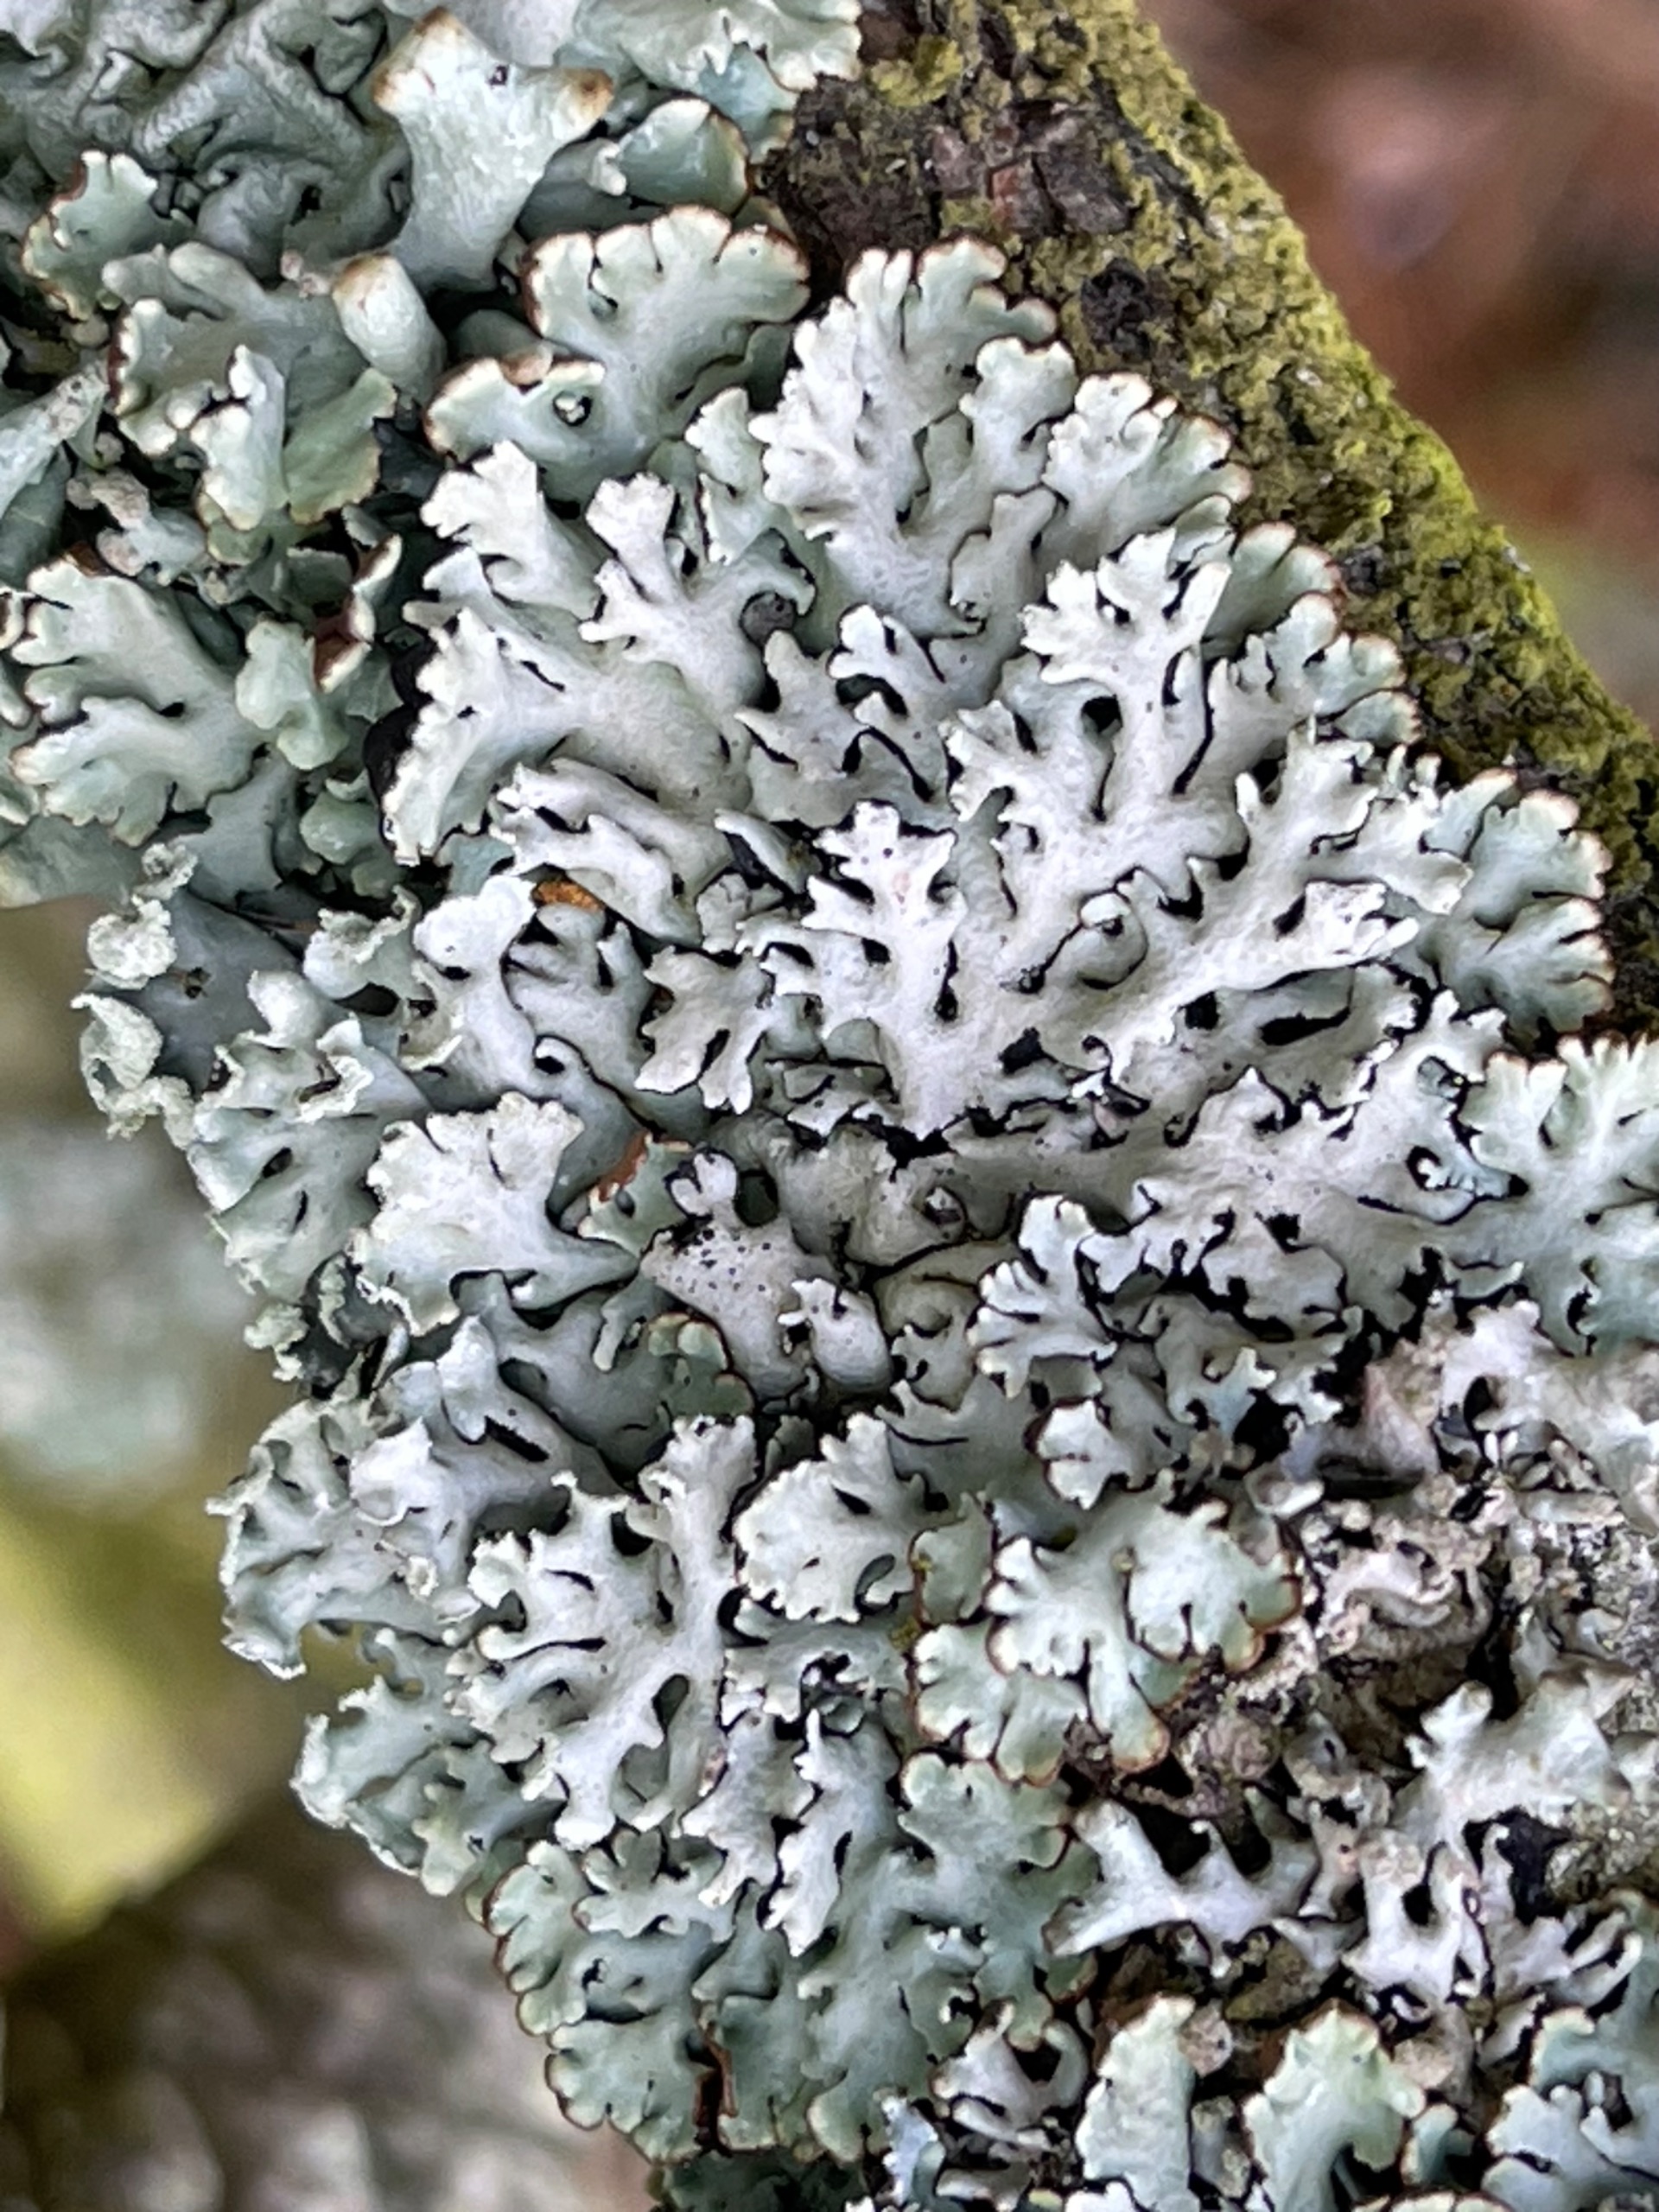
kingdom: Fungi
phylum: Ascomycota
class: Lecanoromycetes
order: Lecanorales
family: Parmeliaceae
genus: Hypogymnia
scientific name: Hypogymnia physodes
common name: Almindelig kvistlav
